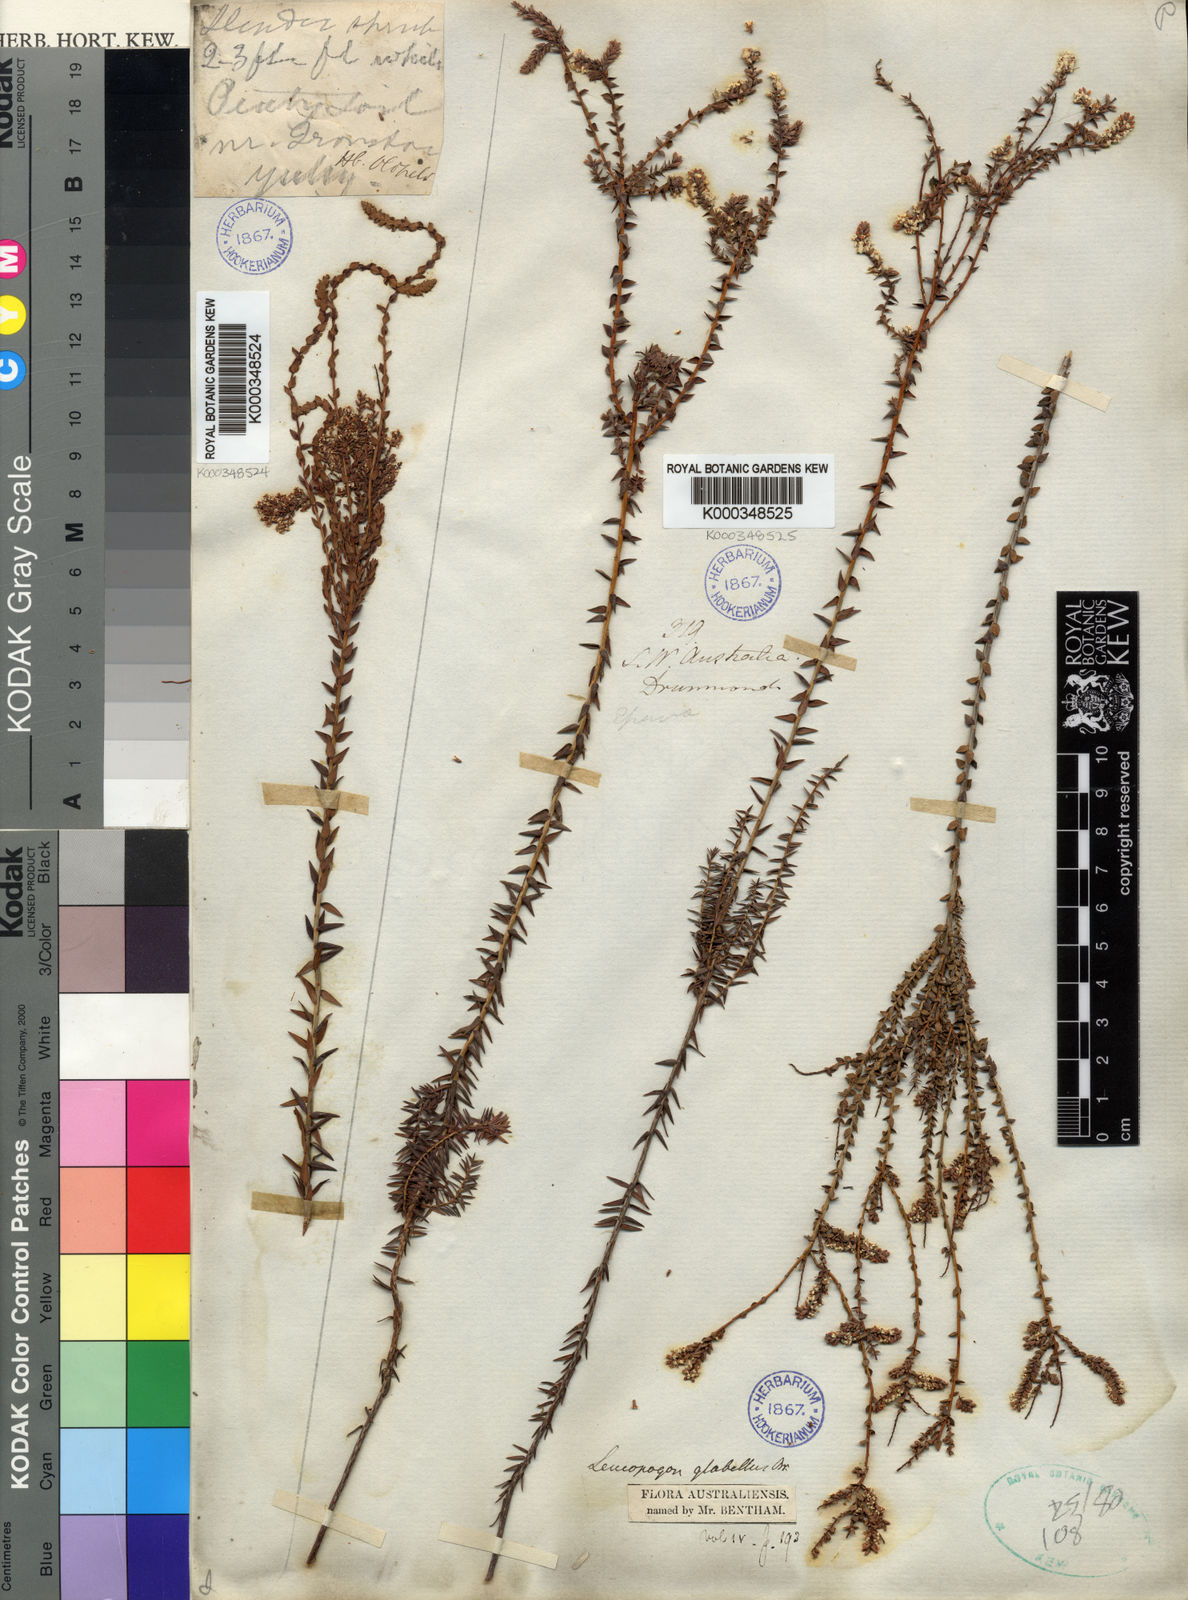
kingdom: Plantae
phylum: Tracheophyta
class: Magnoliopsida
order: Ericales
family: Ericaceae
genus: Leucopogon
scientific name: Leucopogon glabellus
